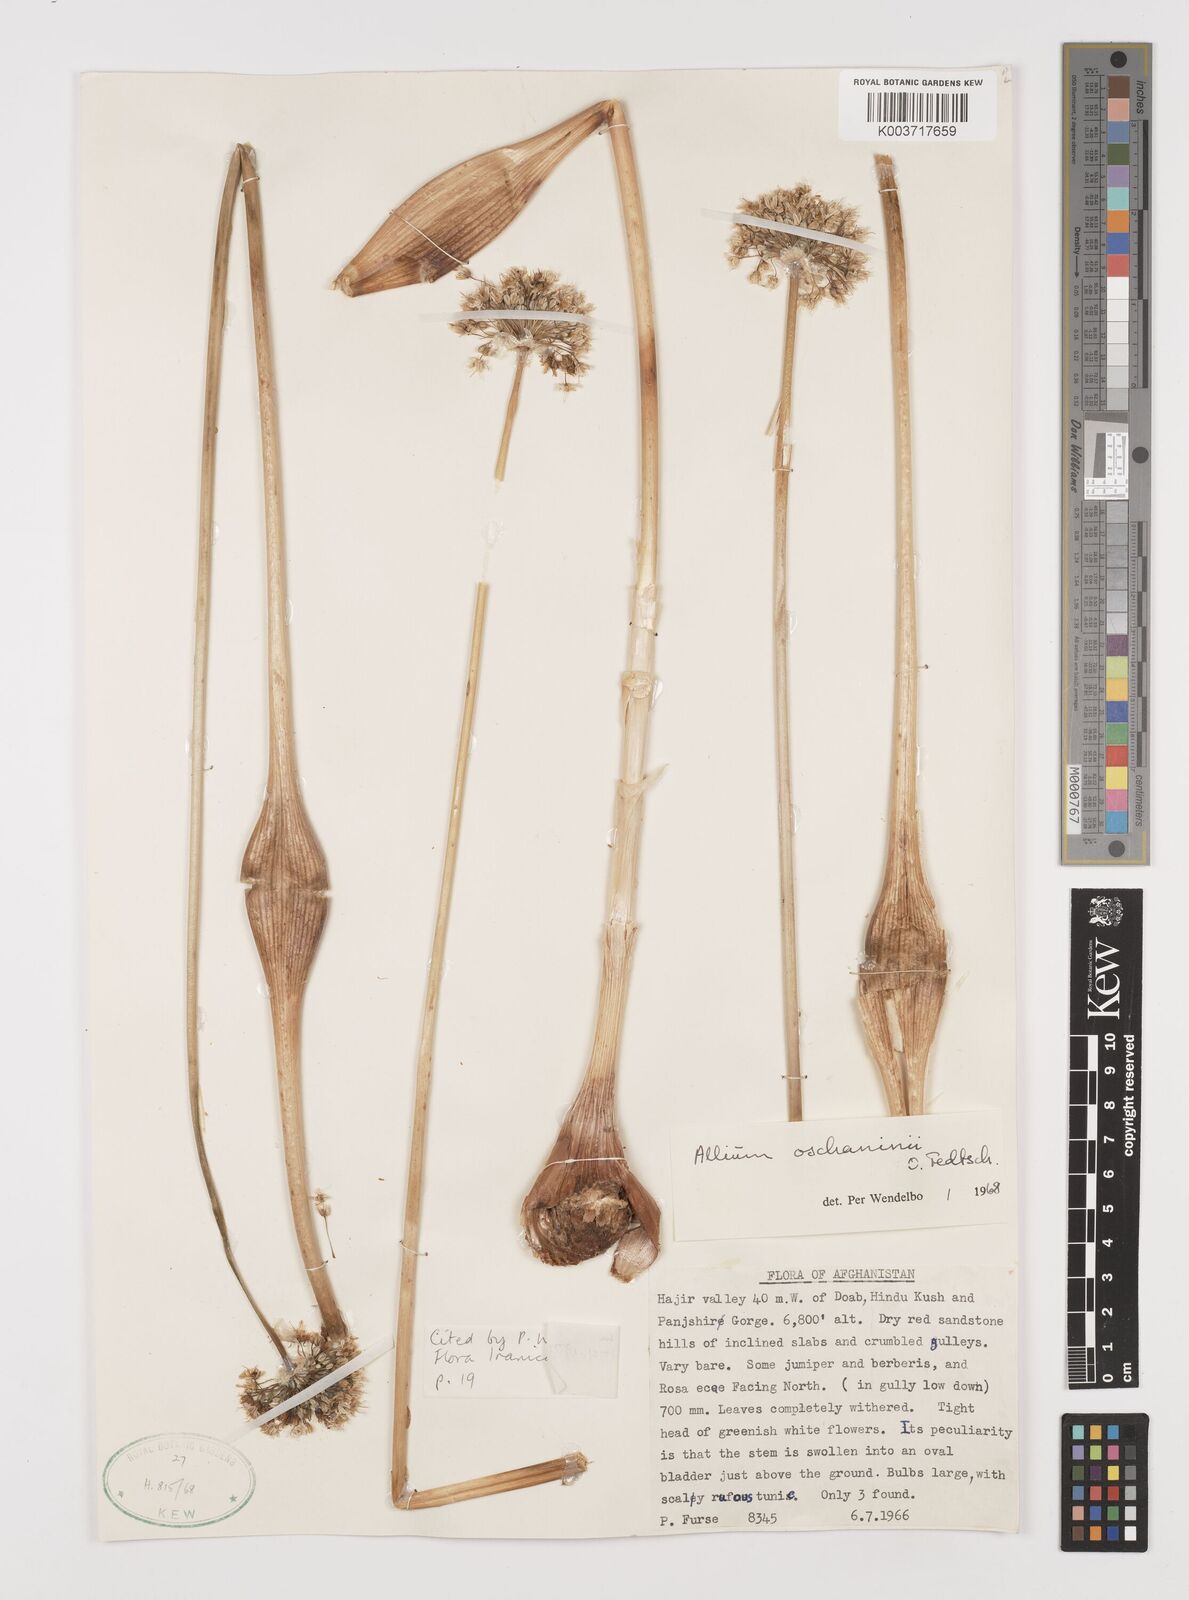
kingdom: Plantae
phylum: Tracheophyta
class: Liliopsida
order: Asparagales
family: Amaryllidaceae
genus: Allium
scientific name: Allium oschaninii
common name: French grey shallot
